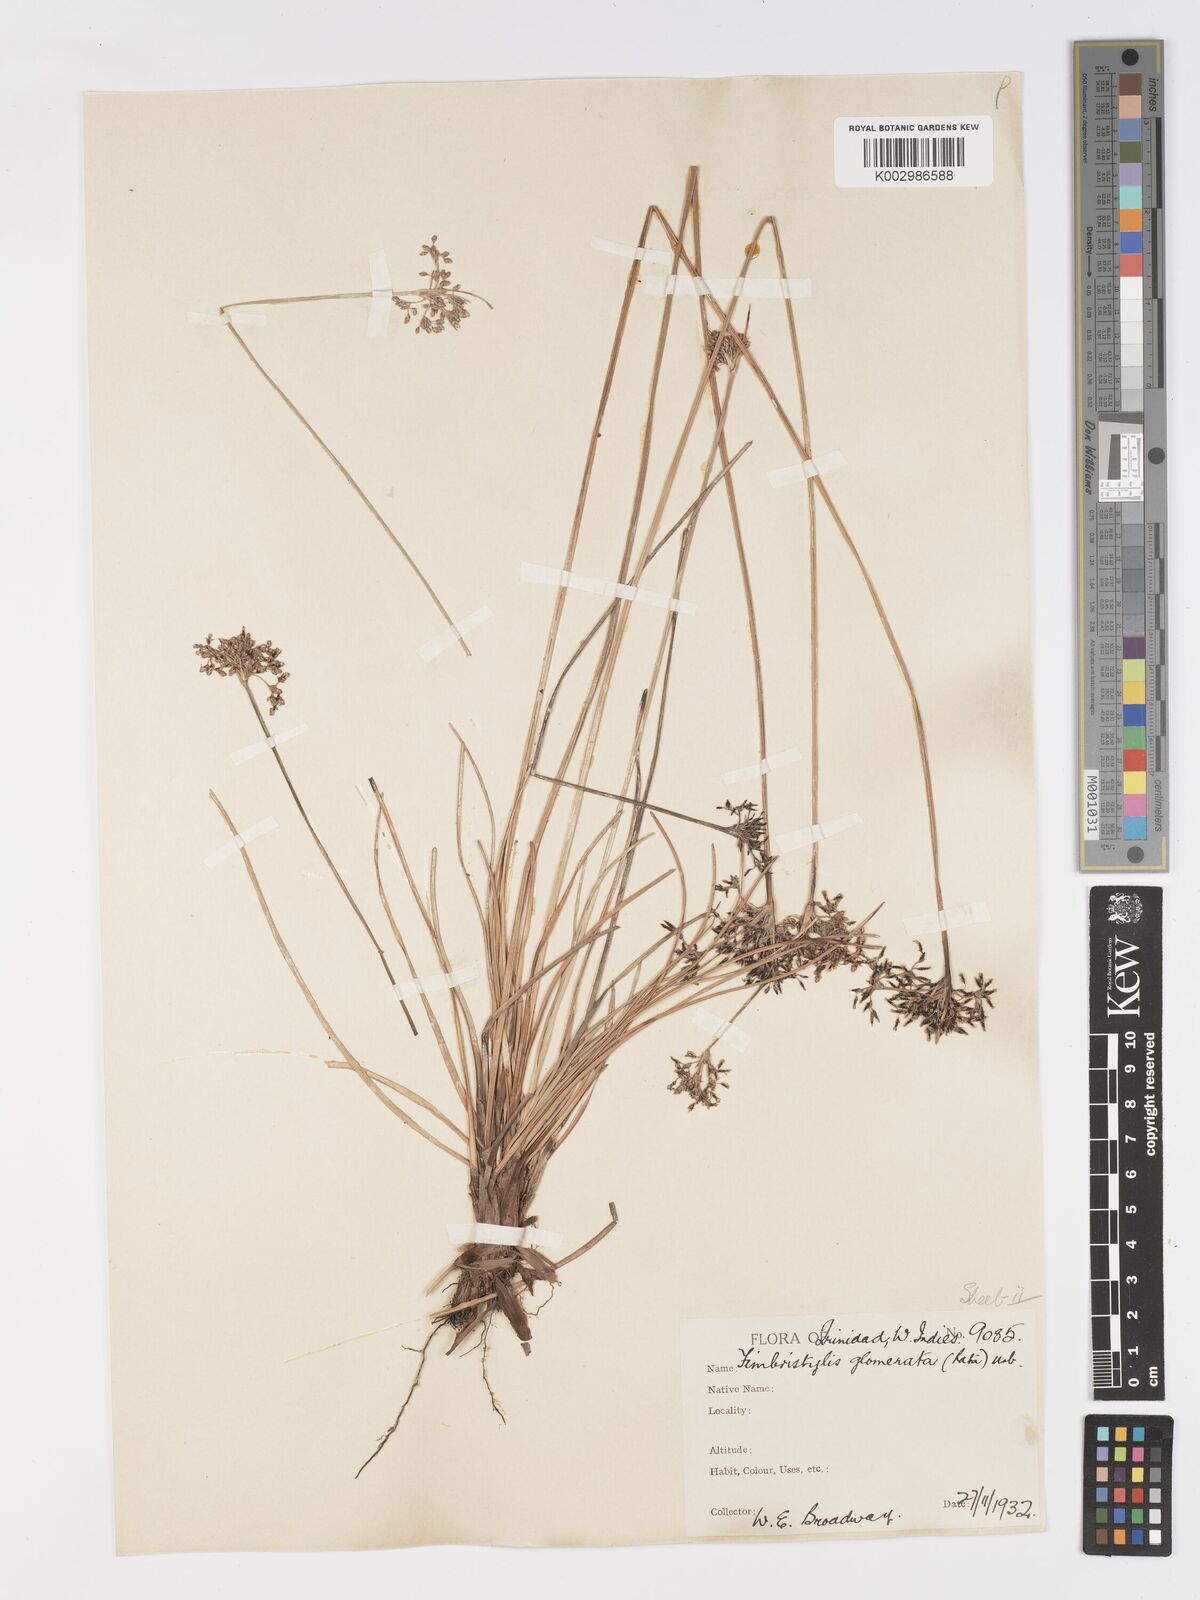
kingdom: Plantae
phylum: Tracheophyta
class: Liliopsida
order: Poales
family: Cyperaceae
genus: Fimbristylis
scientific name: Fimbristylis cymosa
